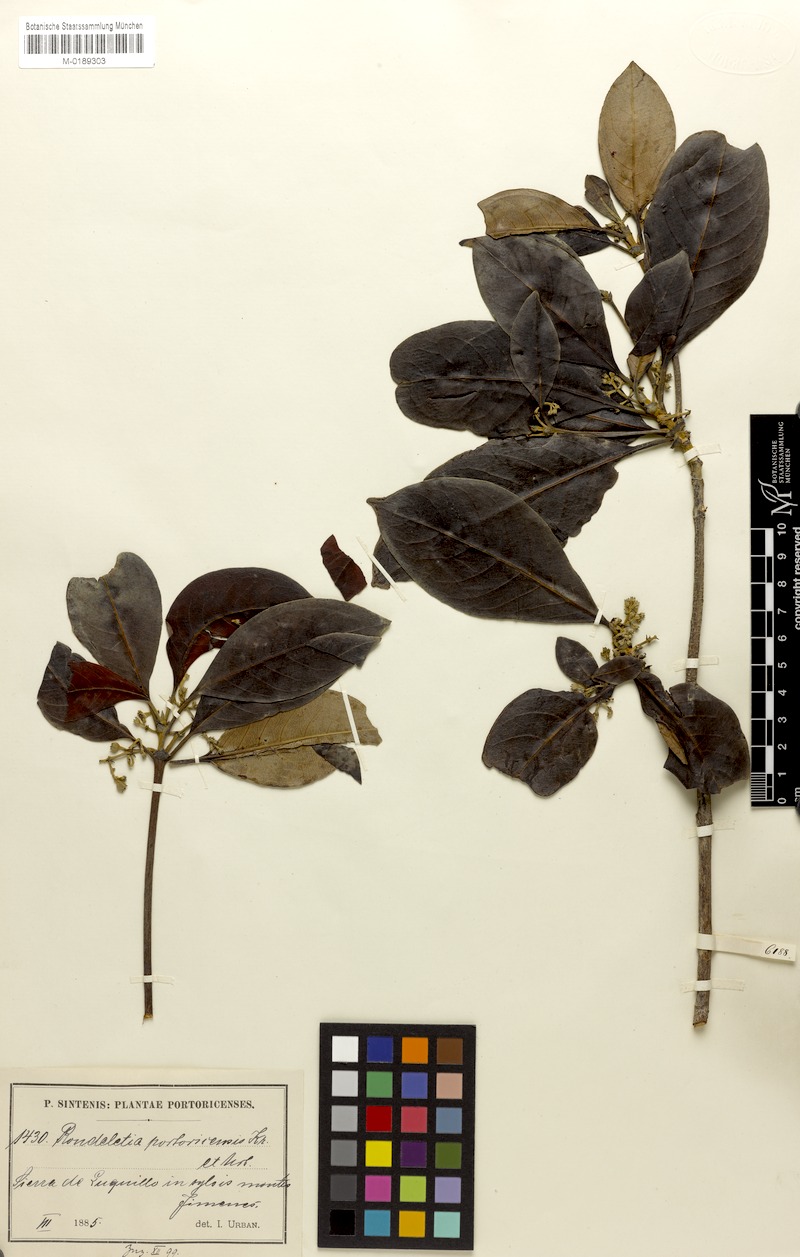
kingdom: Plantae
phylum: Tracheophyta
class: Magnoliopsida
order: Gentianales
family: Rubiaceae
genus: Rondeletia
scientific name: Rondeletia portoricensis
